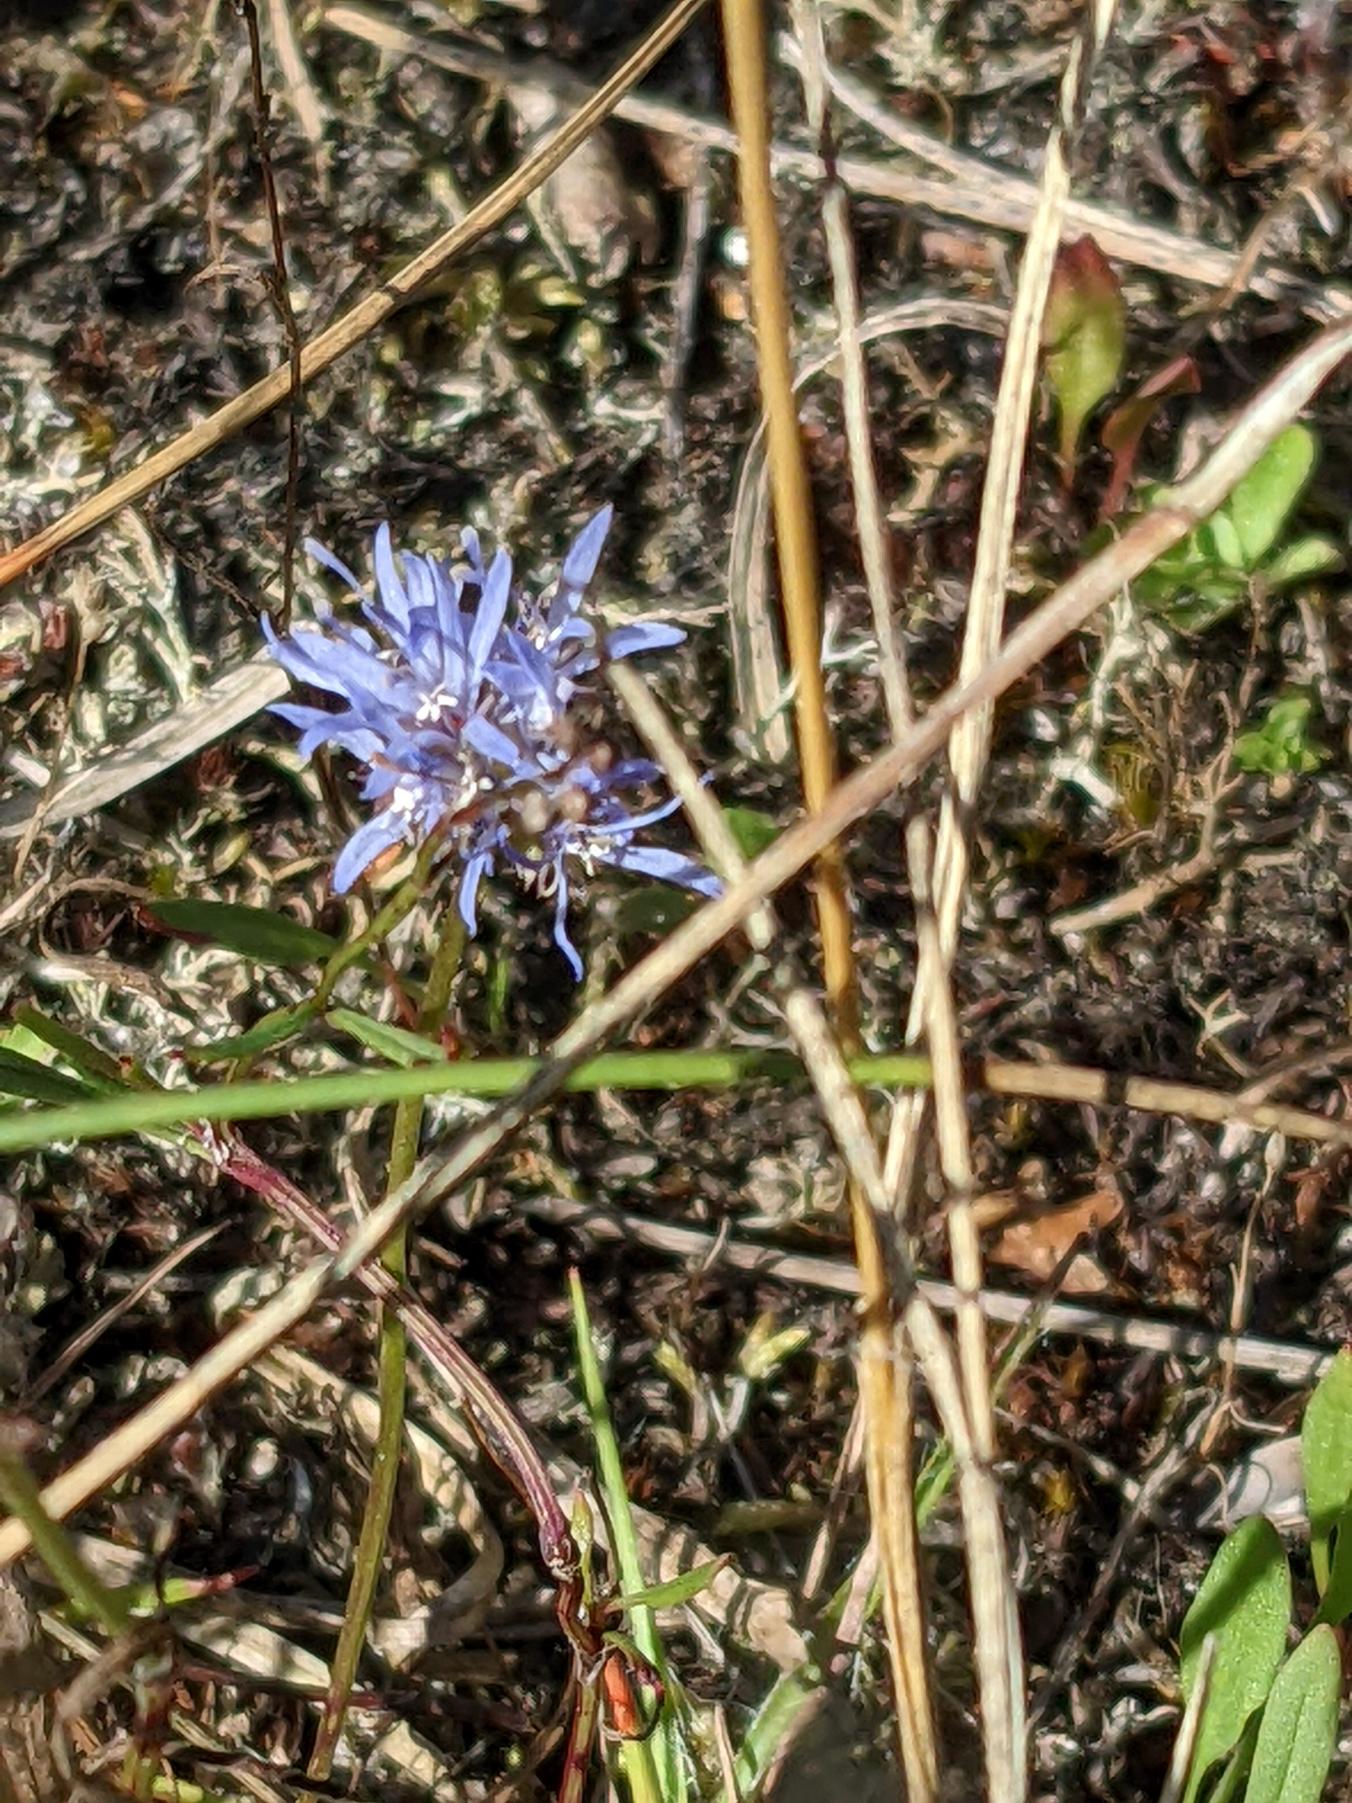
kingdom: Plantae
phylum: Tracheophyta
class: Magnoliopsida
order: Asterales
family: Campanulaceae
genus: Jasione
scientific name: Jasione montana
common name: Blåmunke
